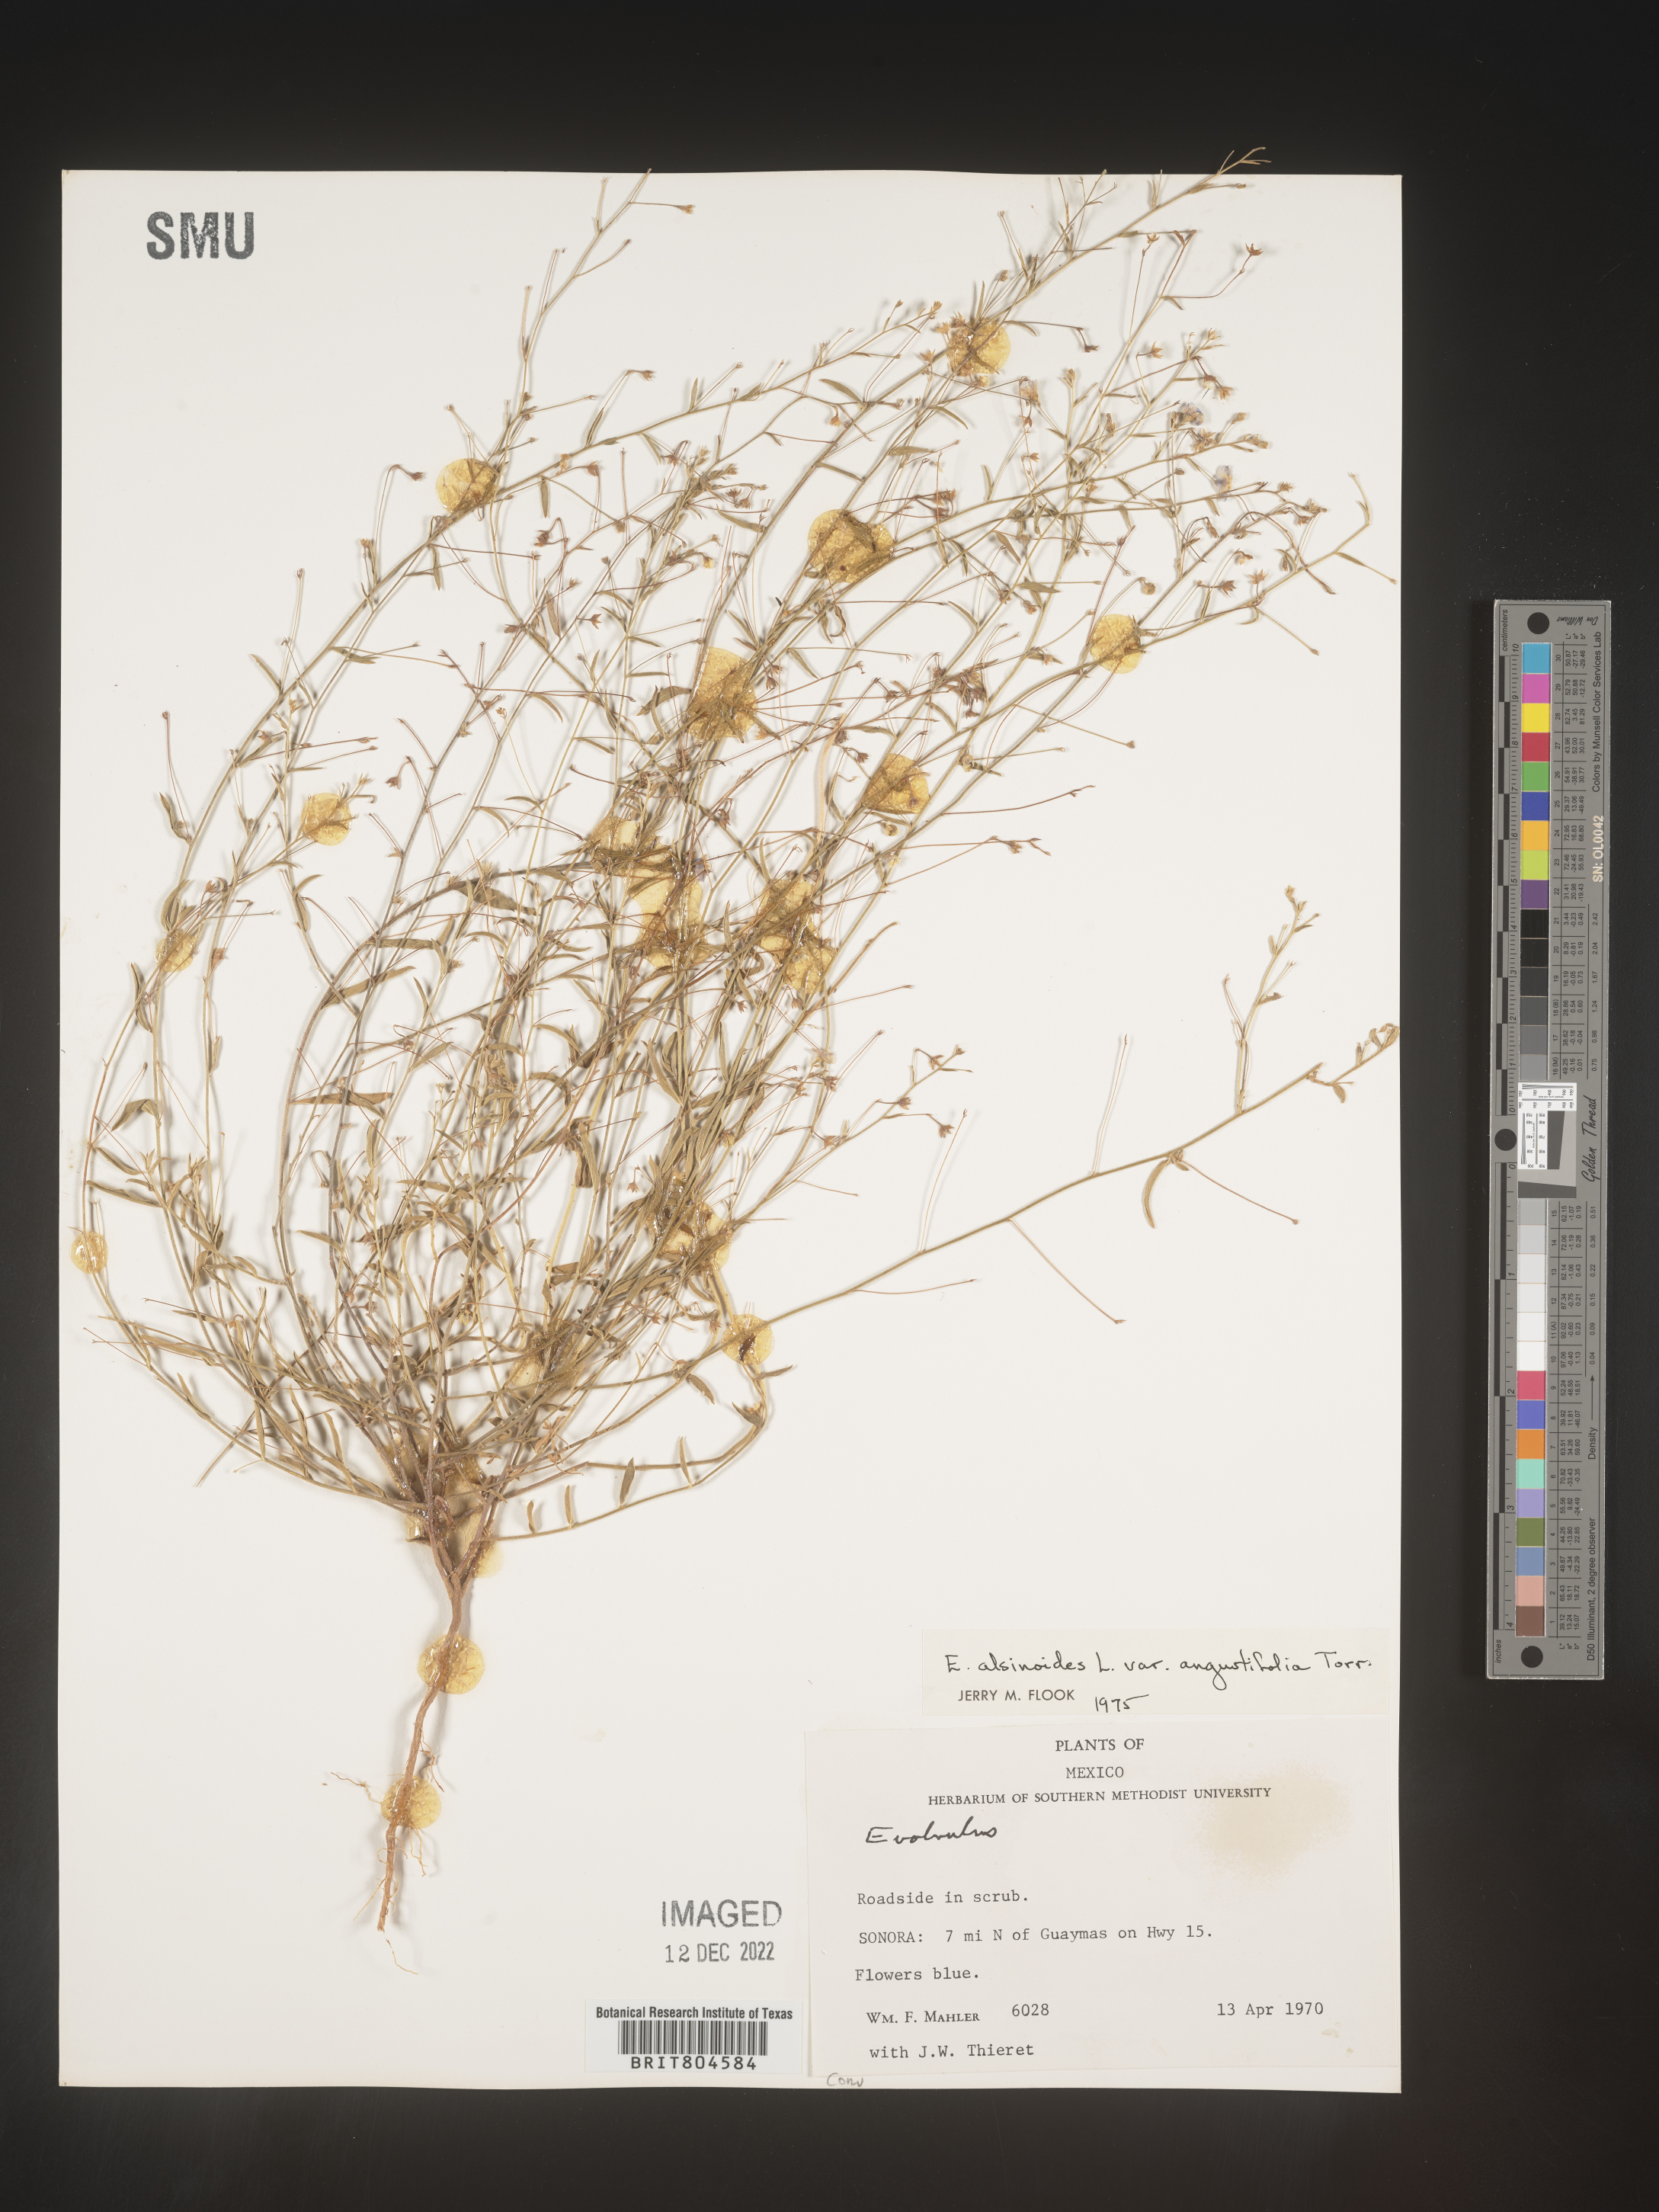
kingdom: Plantae
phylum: Tracheophyta
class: Magnoliopsida
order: Solanales
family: Convolvulaceae
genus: Evolvulus
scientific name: Evolvulus
